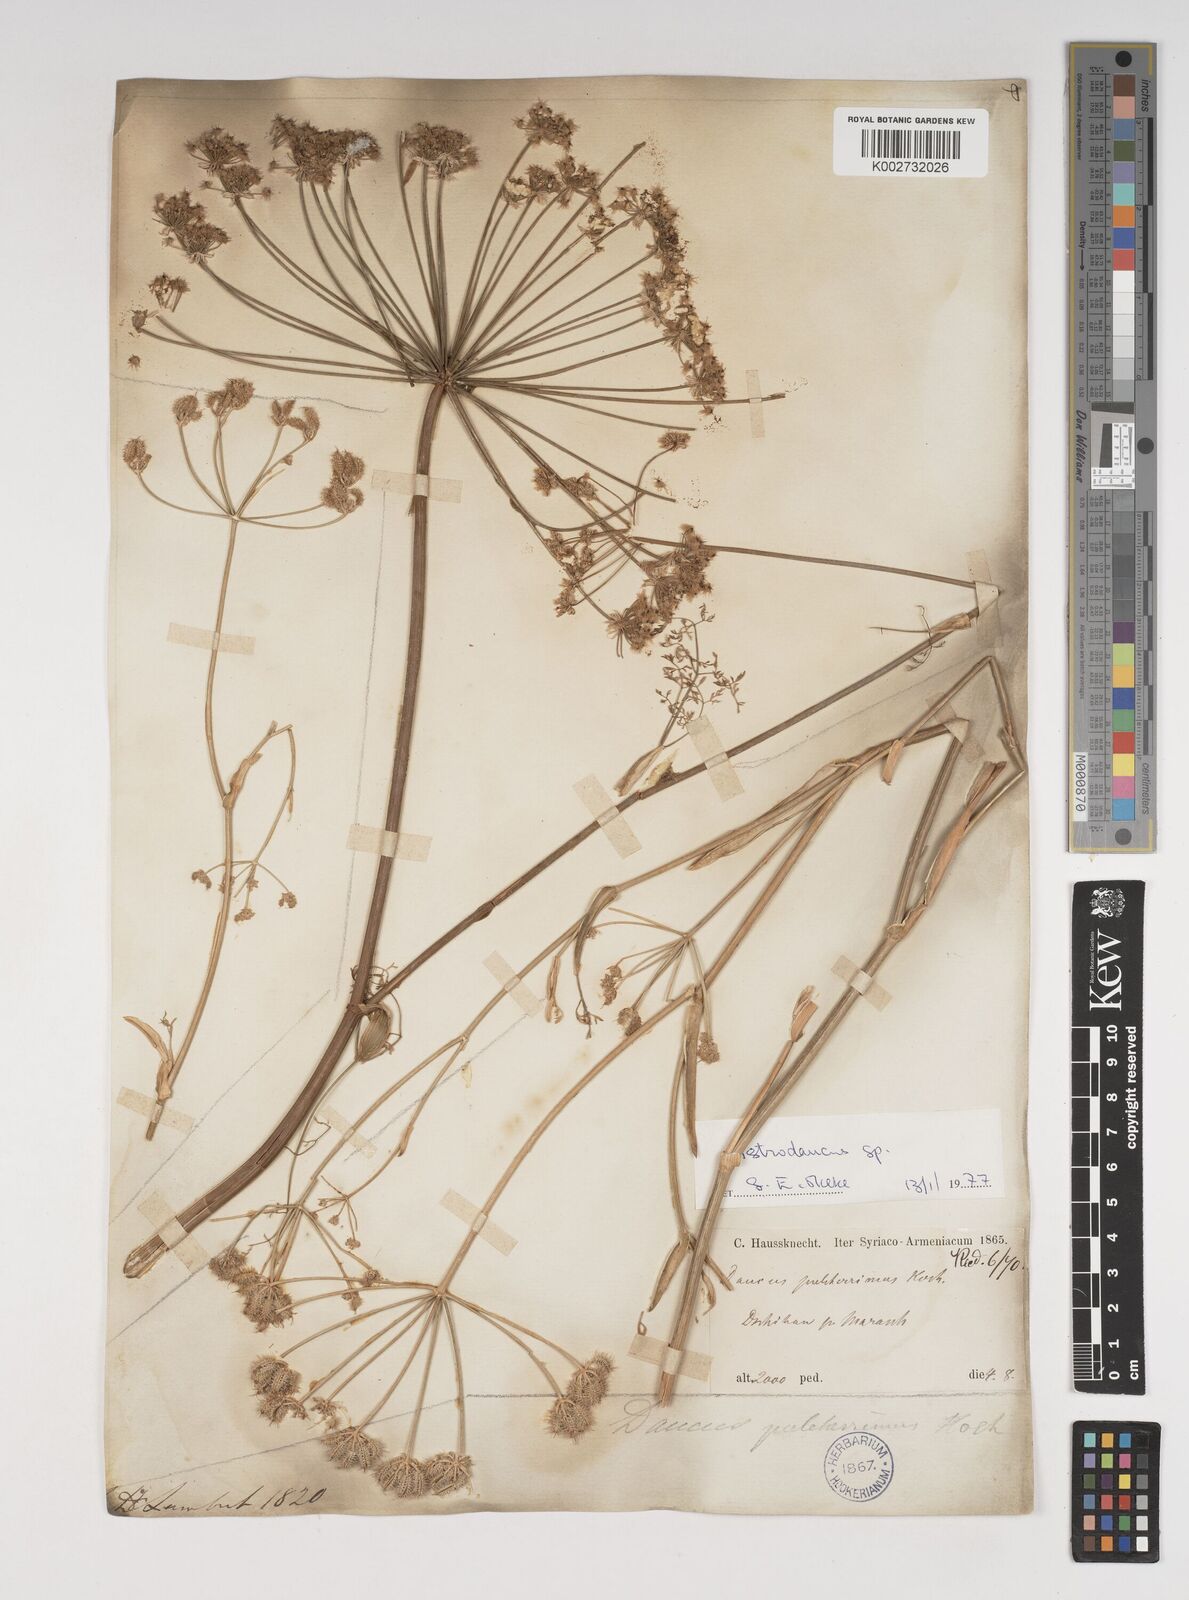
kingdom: Plantae
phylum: Tracheophyta
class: Magnoliopsida
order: Apiales
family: Apiaceae
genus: Astrodaucus
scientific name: Astrodaucus
